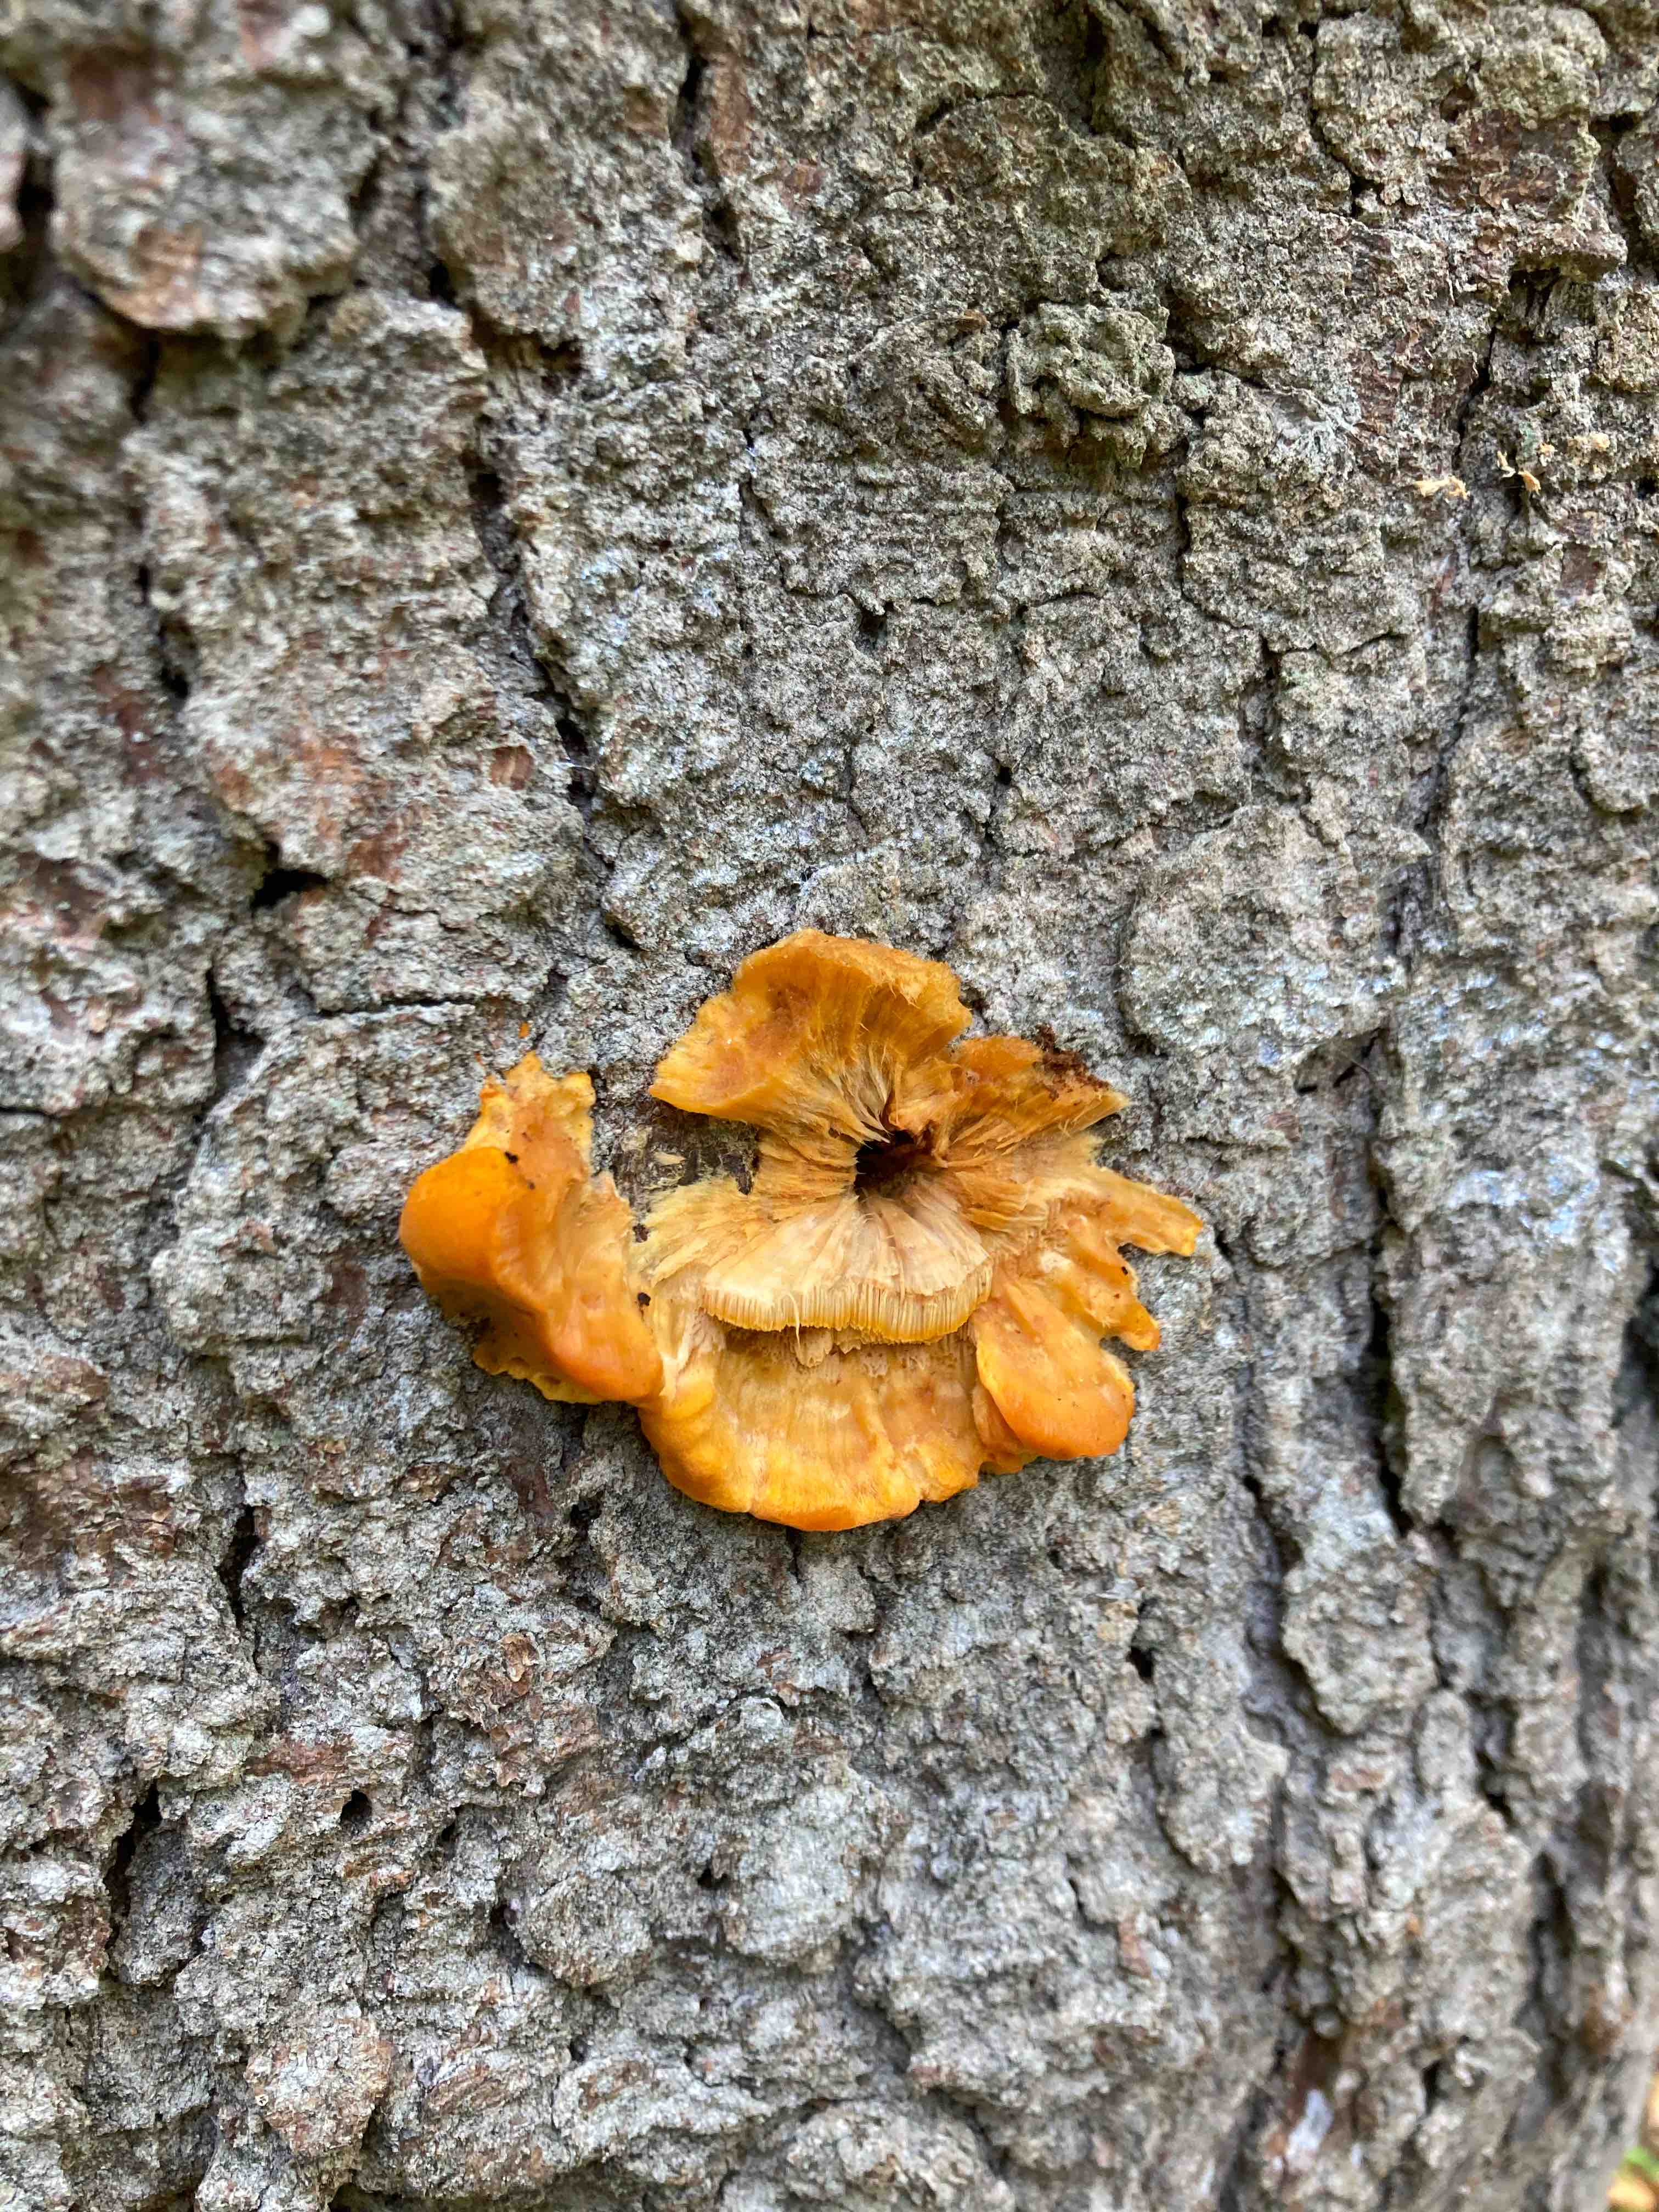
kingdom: Fungi
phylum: Basidiomycota
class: Agaricomycetes
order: Polyporales
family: Pycnoporellaceae
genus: Pycnoporellus
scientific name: Pycnoporellus fulgens
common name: flammeporesvamp
